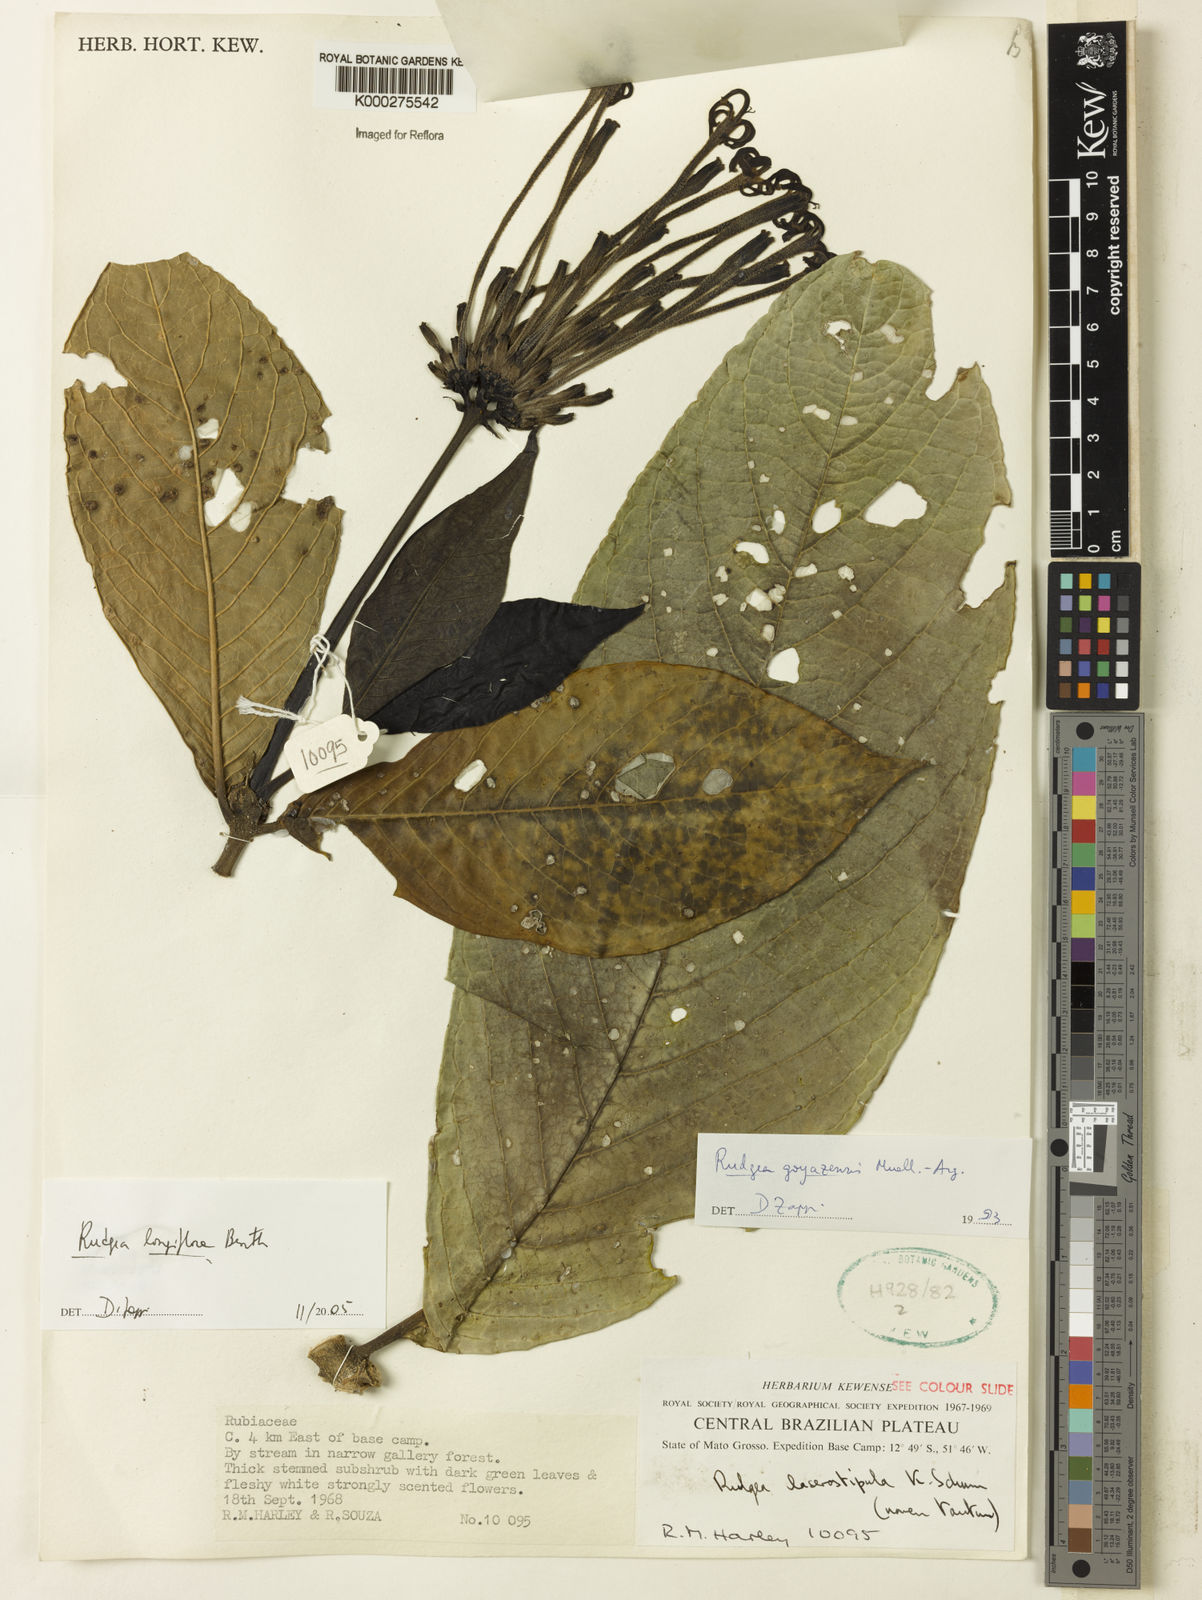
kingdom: Plantae
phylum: Tracheophyta
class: Magnoliopsida
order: Gentianales
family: Rubiaceae
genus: Rudgea
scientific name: Rudgea longiflora
